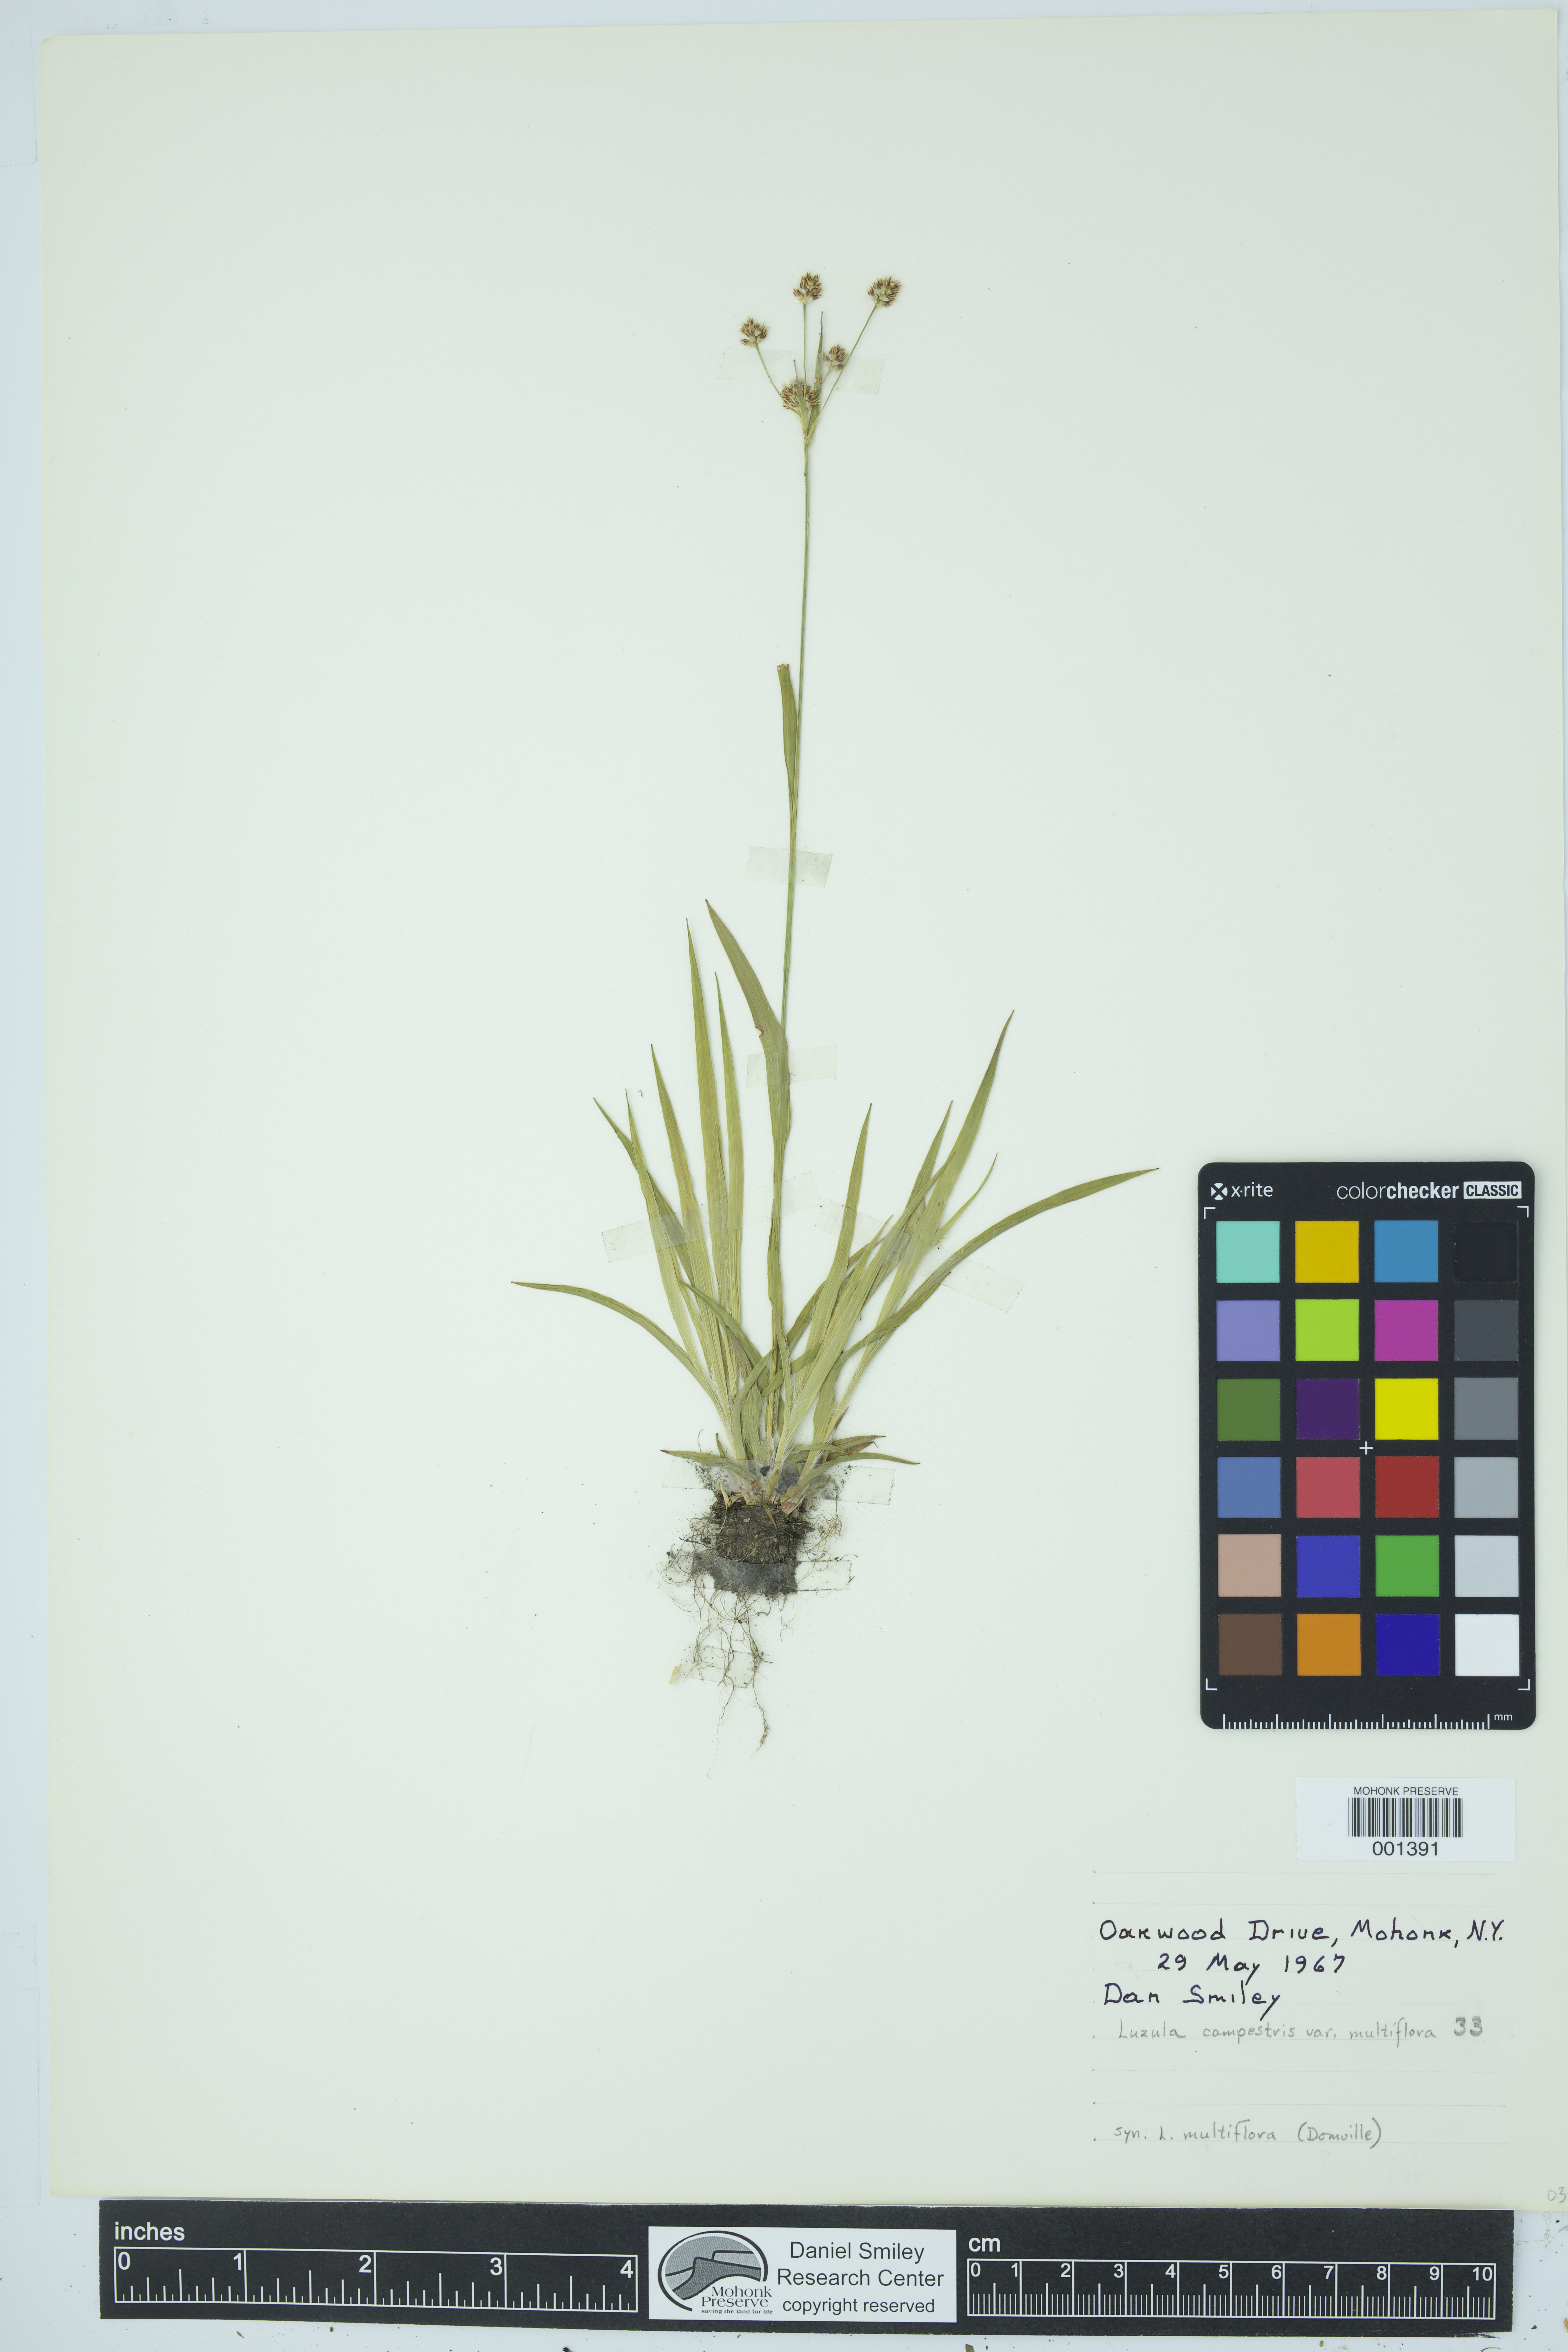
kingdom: Plantae
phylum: Tracheophyta
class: Liliopsida
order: Poales
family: Juncaceae
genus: Luzula
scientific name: Luzula campestris
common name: Field wood-rush
